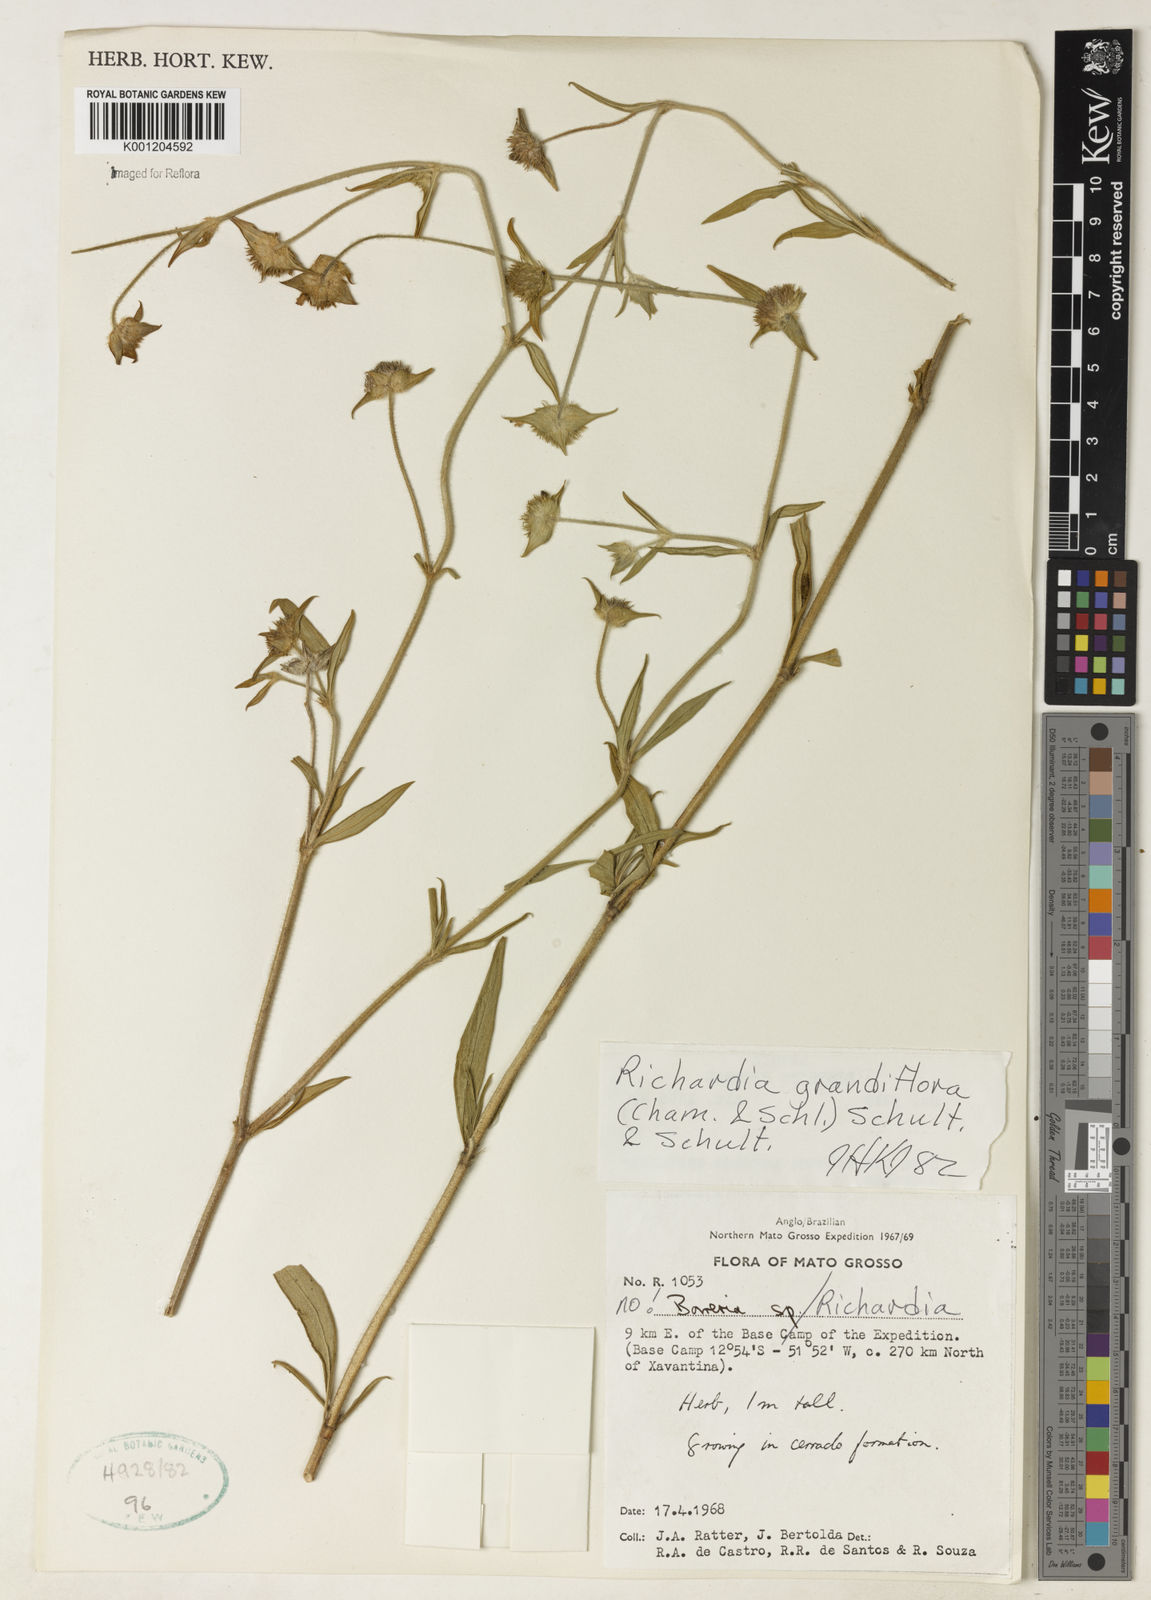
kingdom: Plantae
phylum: Tracheophyta
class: Magnoliopsida
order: Gentianales
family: Rubiaceae
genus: Richardia
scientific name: Richardia grandiflora
